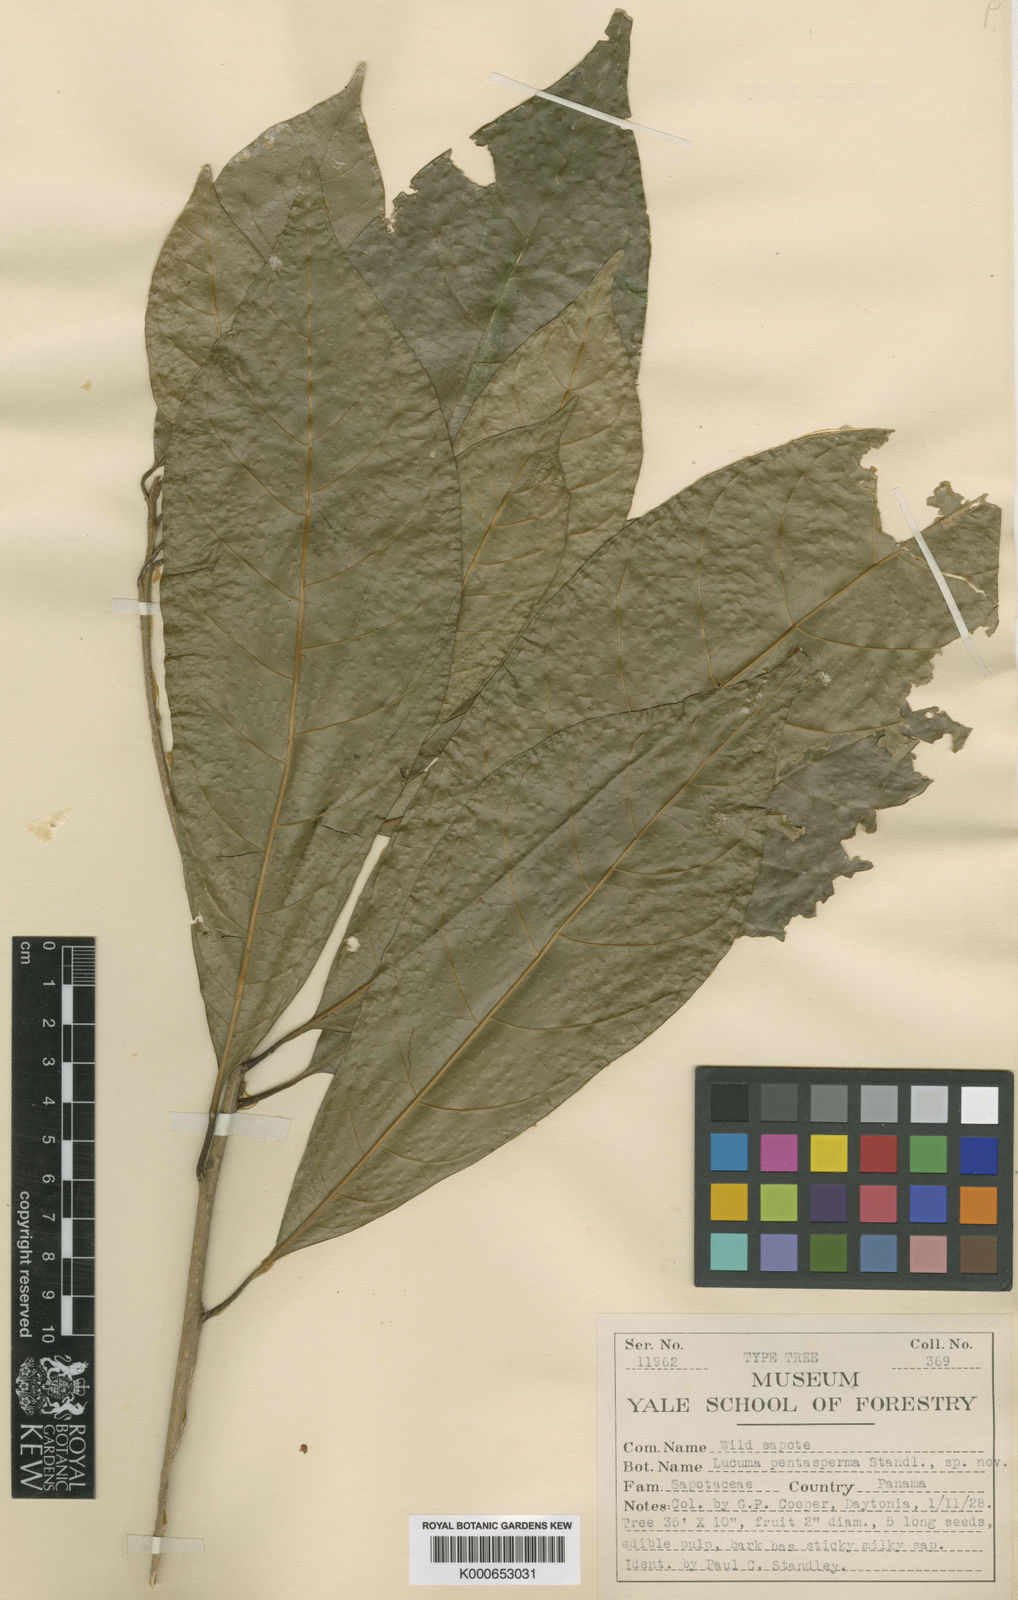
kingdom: Plantae
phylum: Tracheophyta
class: Magnoliopsida
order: Ericales
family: Sapotaceae
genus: Chrysophyllum
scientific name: Chrysophyllum lucentifolium
